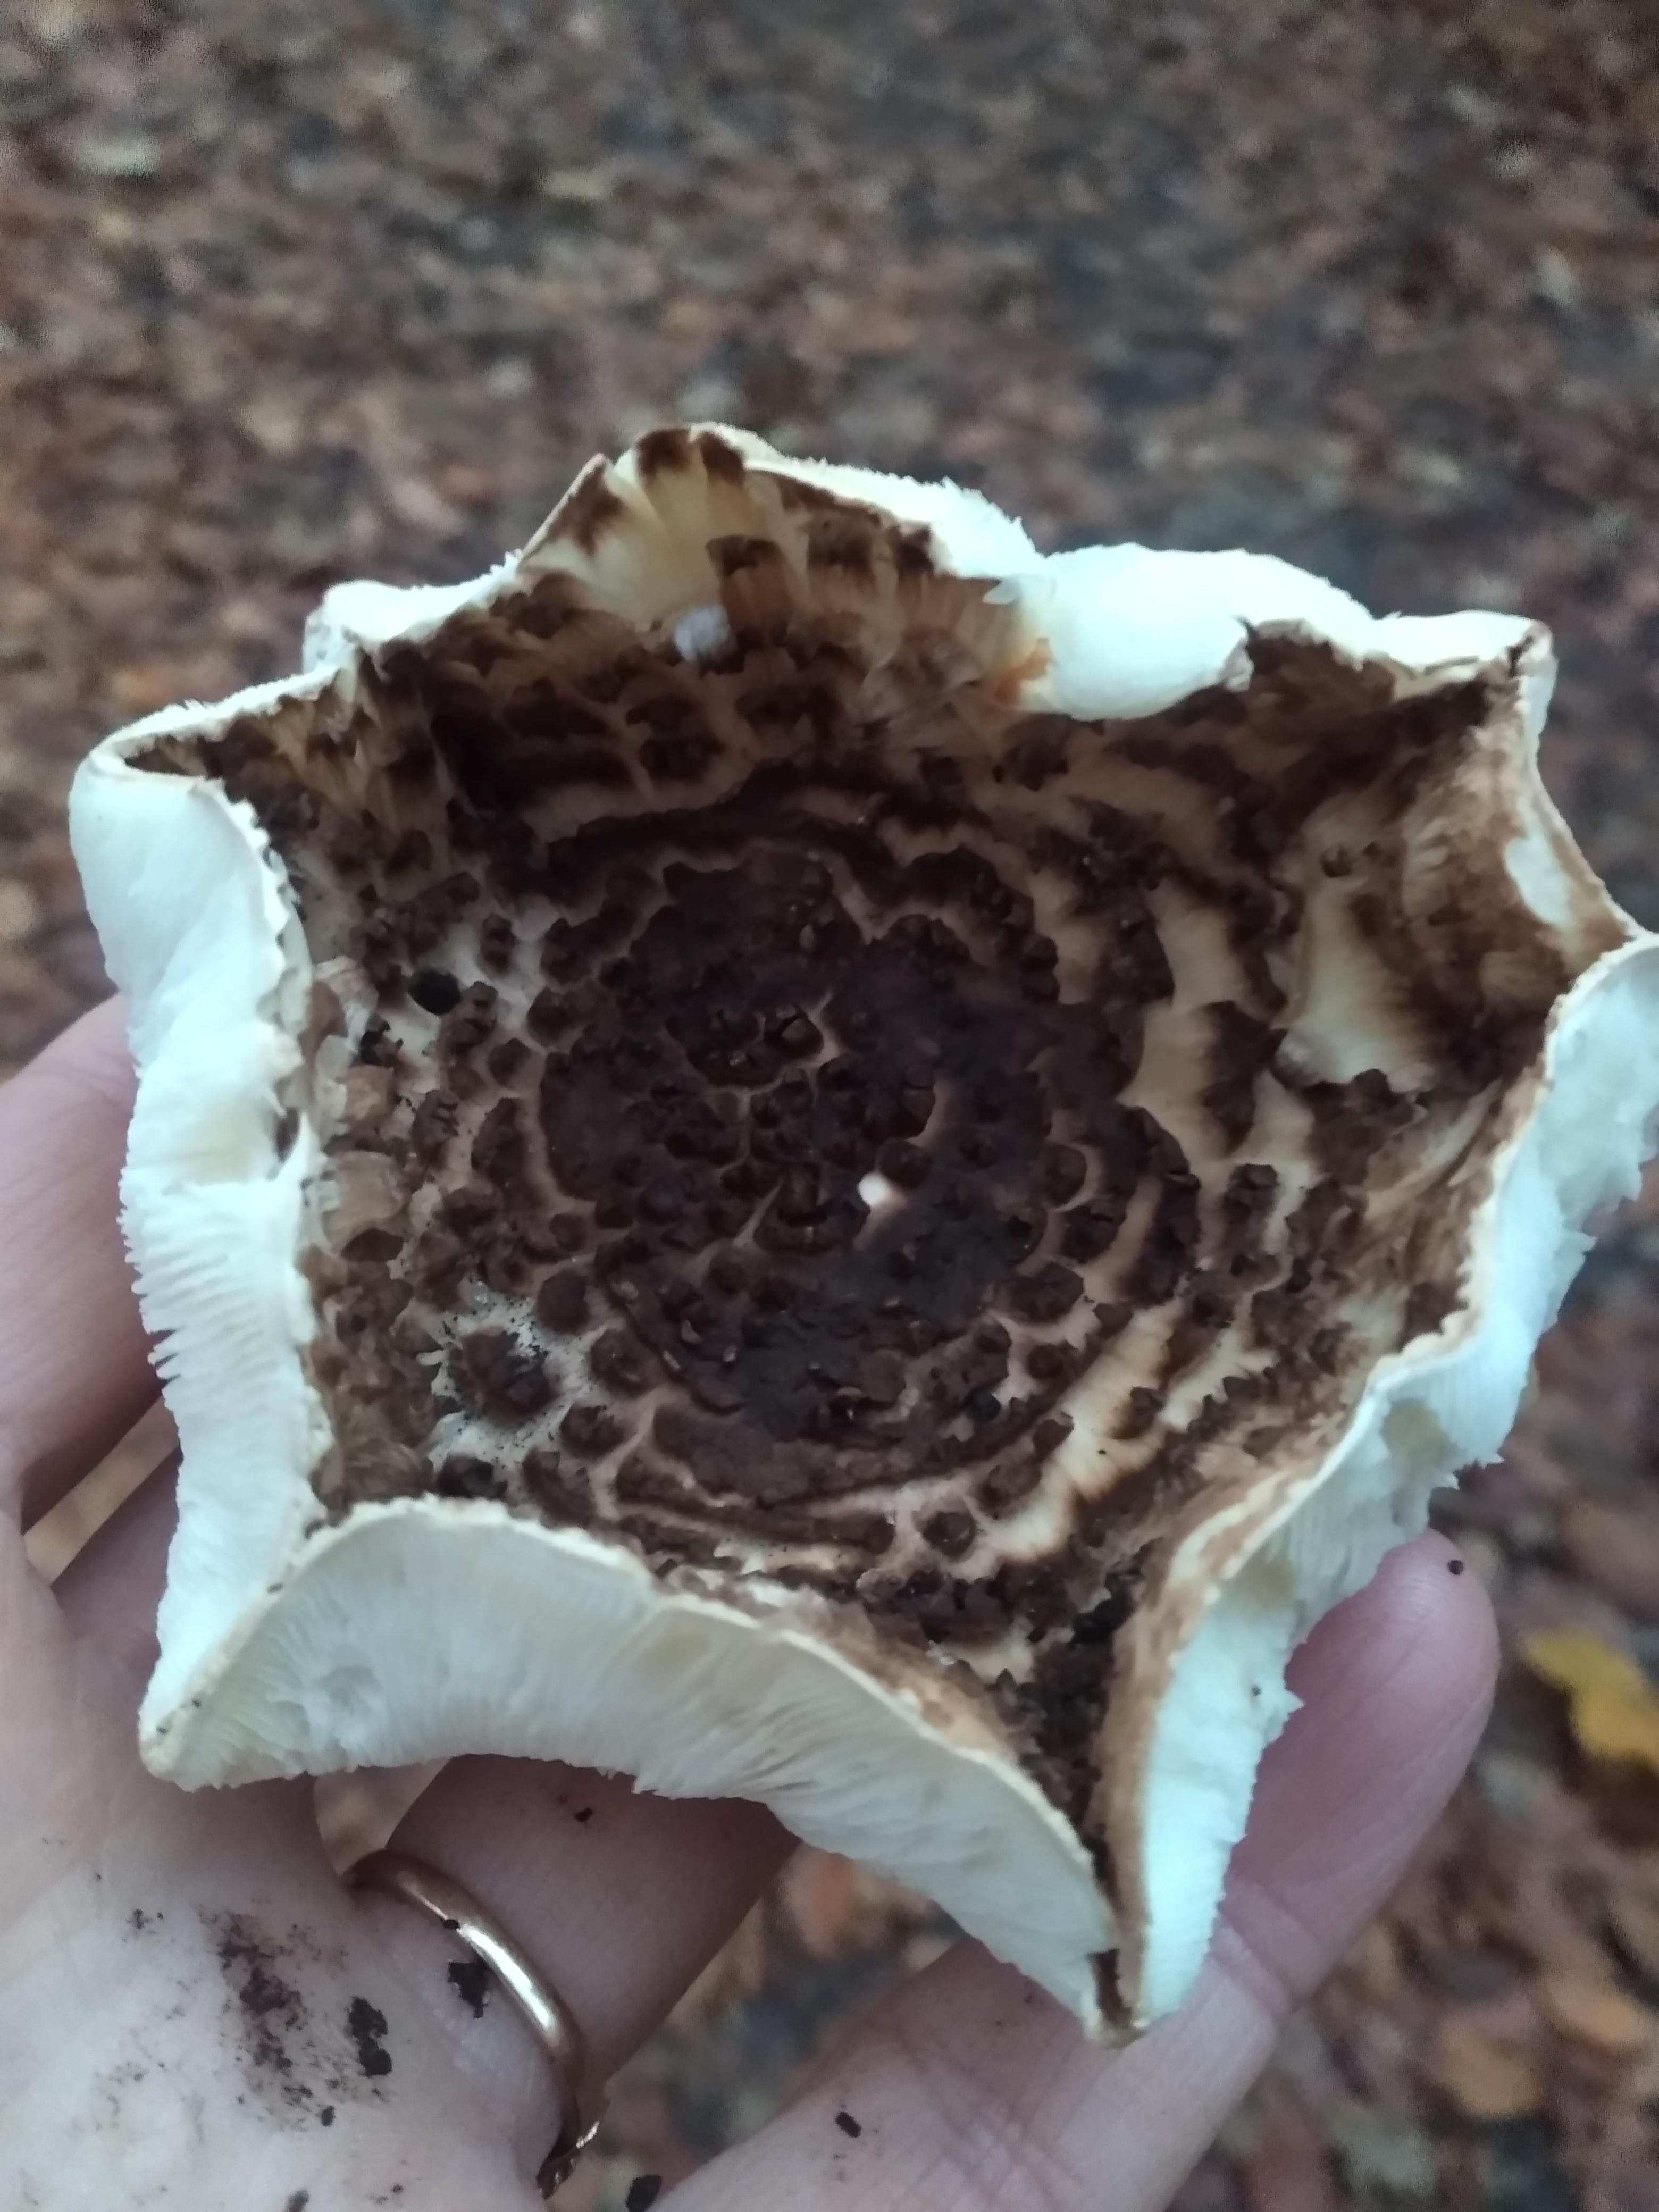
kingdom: Fungi
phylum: Basidiomycota
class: Agaricomycetes
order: Agaricales
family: Agaricaceae
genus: Echinoderma
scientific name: Echinoderma asperum
